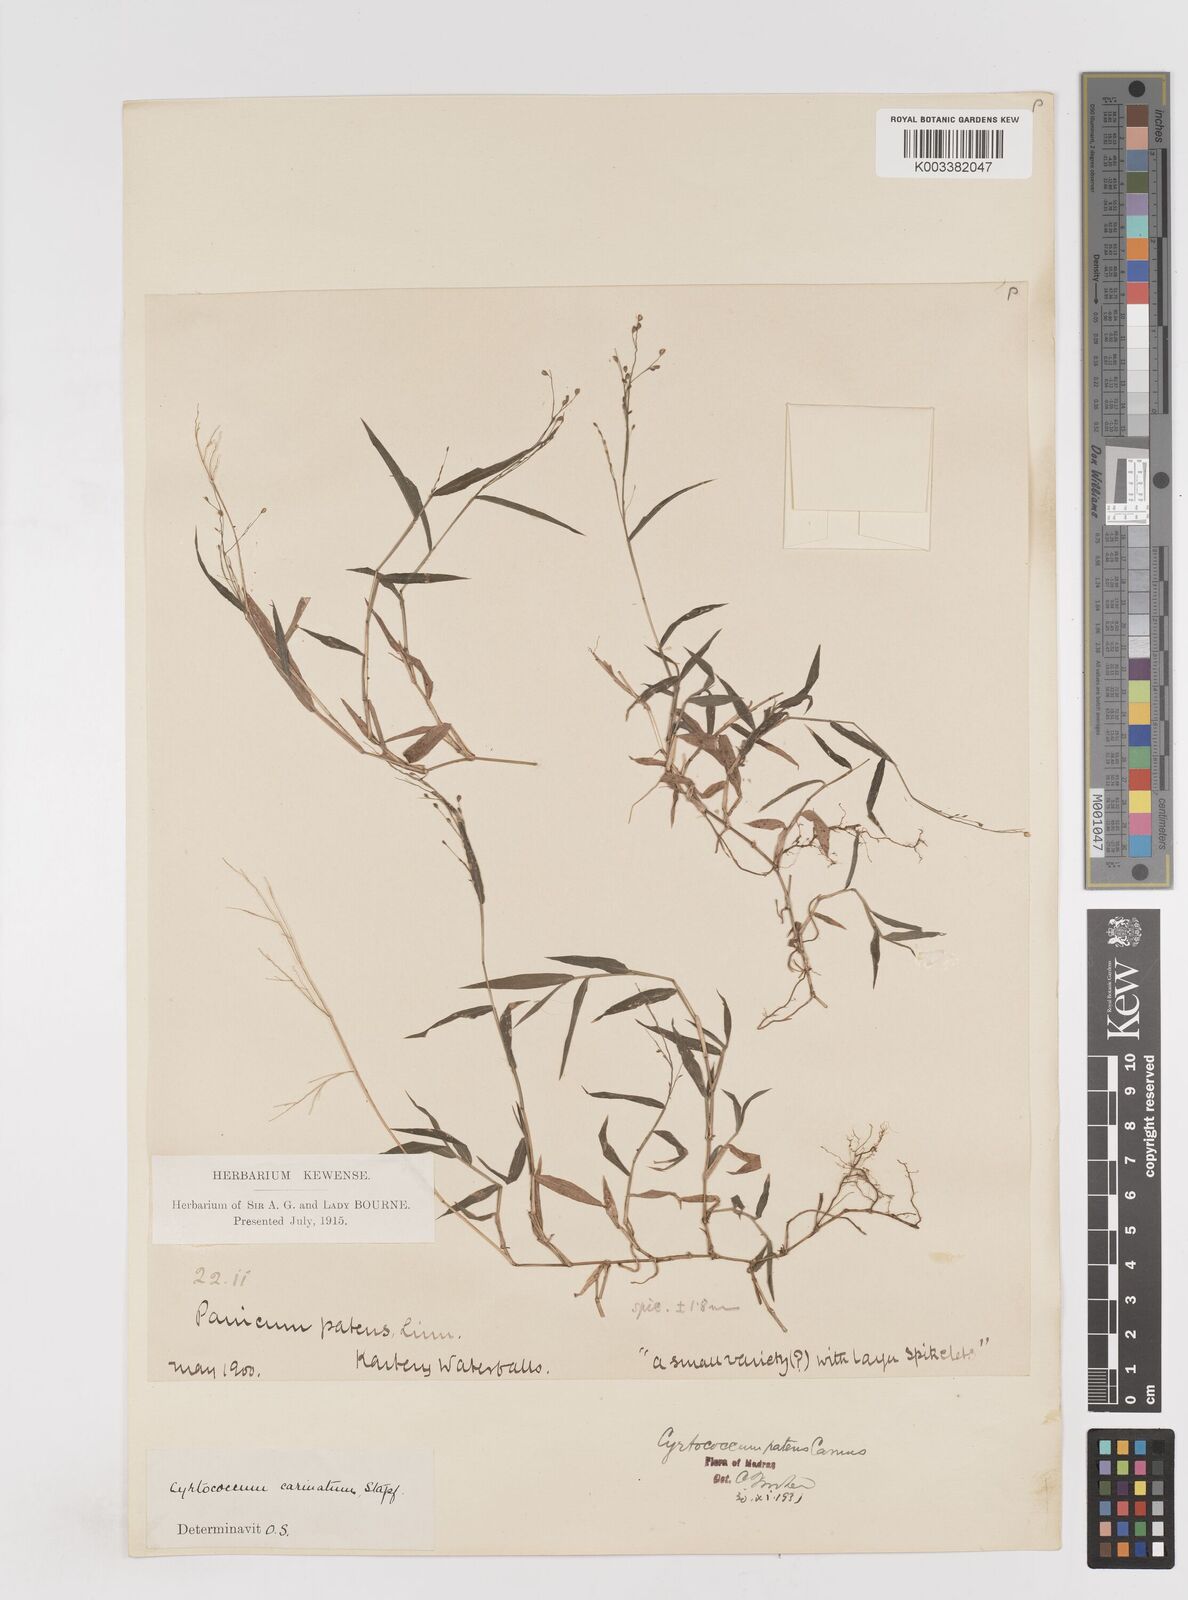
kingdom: Plantae
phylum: Tracheophyta
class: Liliopsida
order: Poales
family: Poaceae
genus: Cyrtococcum
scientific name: Cyrtococcum deccanense
